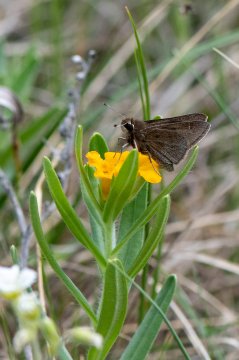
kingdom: Animalia
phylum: Arthropoda
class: Insecta
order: Lepidoptera
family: Hesperiidae
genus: Atrytonopsis
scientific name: Atrytonopsis hianna
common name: Dusted Skipper
